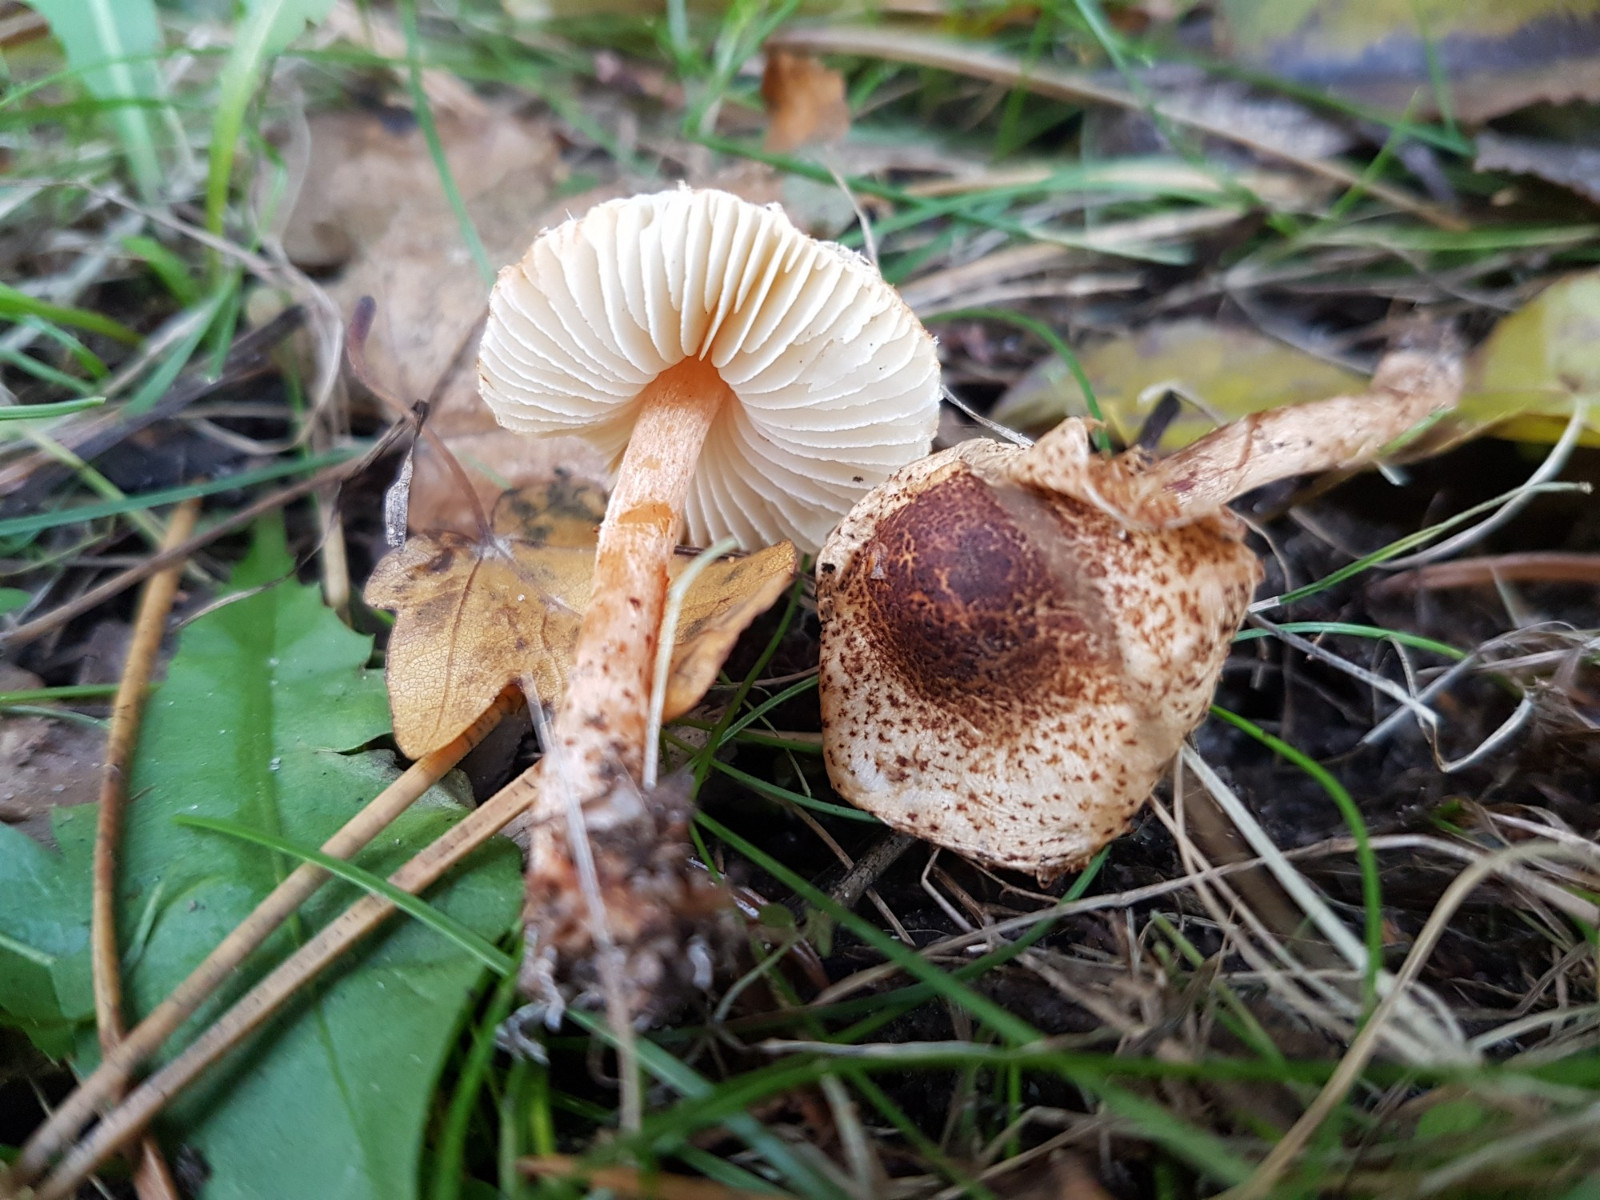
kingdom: Fungi
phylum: Basidiomycota
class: Agaricomycetes
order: Agaricales
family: Agaricaceae
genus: Lepiota
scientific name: Lepiota castanea
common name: kastaniebrun parasolhat
